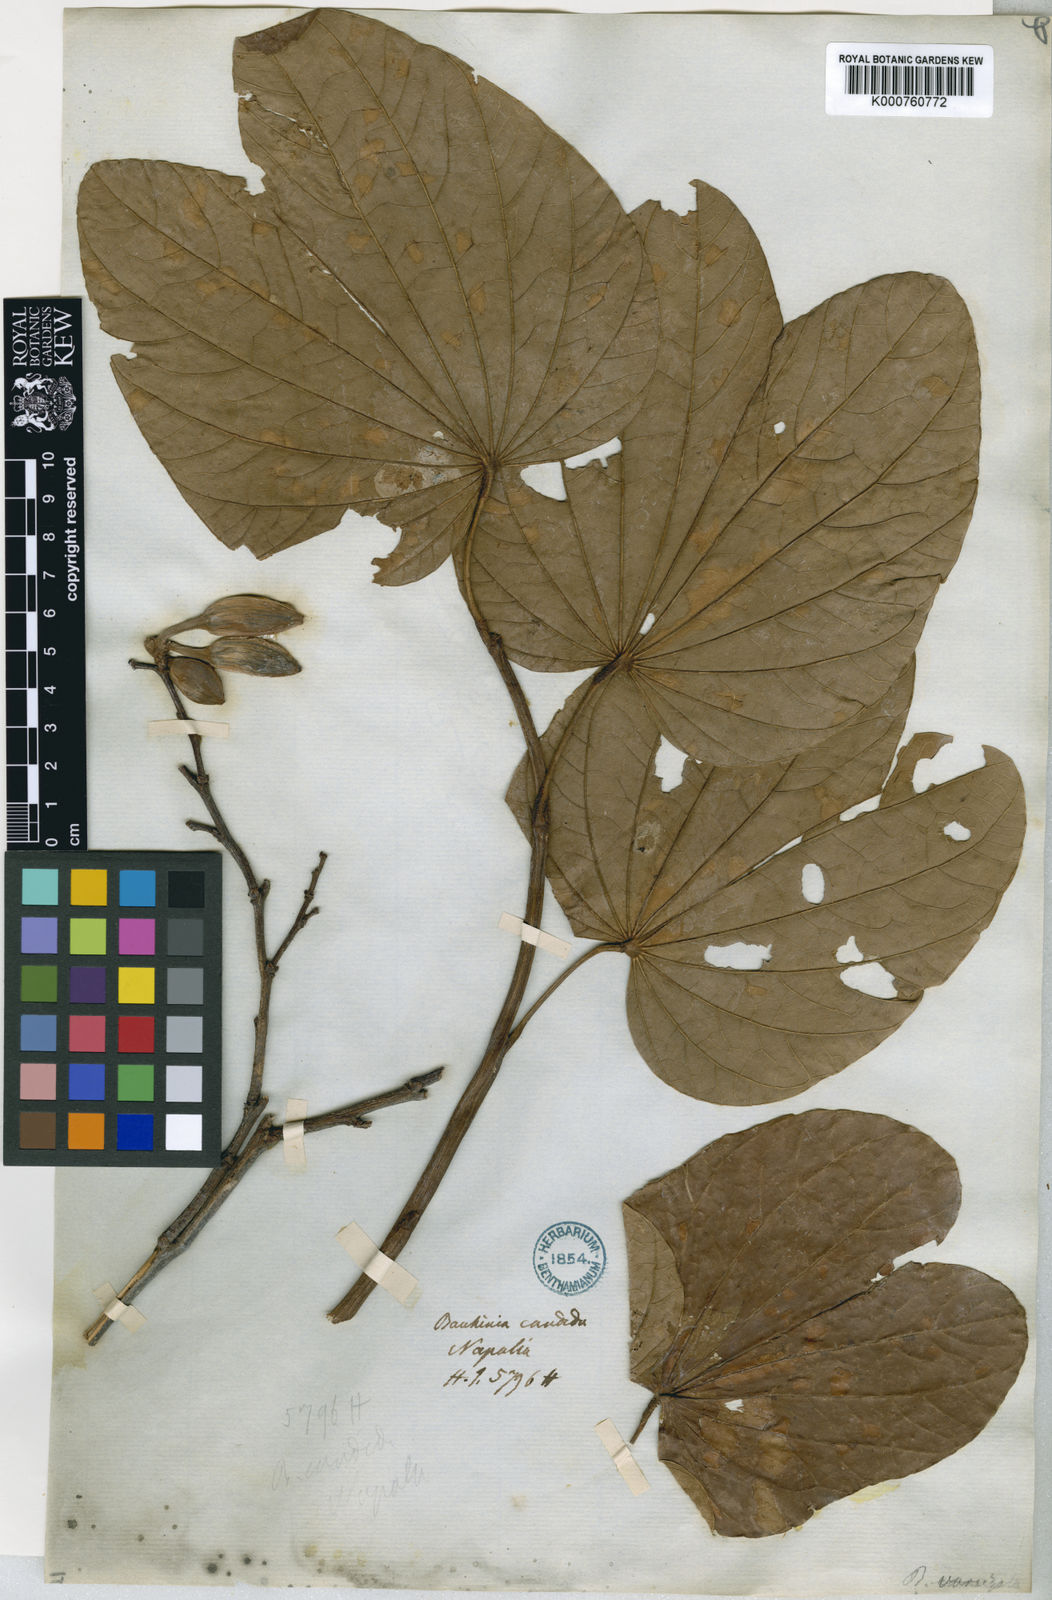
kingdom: Plantae
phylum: Tracheophyta
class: Magnoliopsida
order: Fabales
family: Fabaceae
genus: Bauhinia
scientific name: Bauhinia variegata
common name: Mountain ebony
